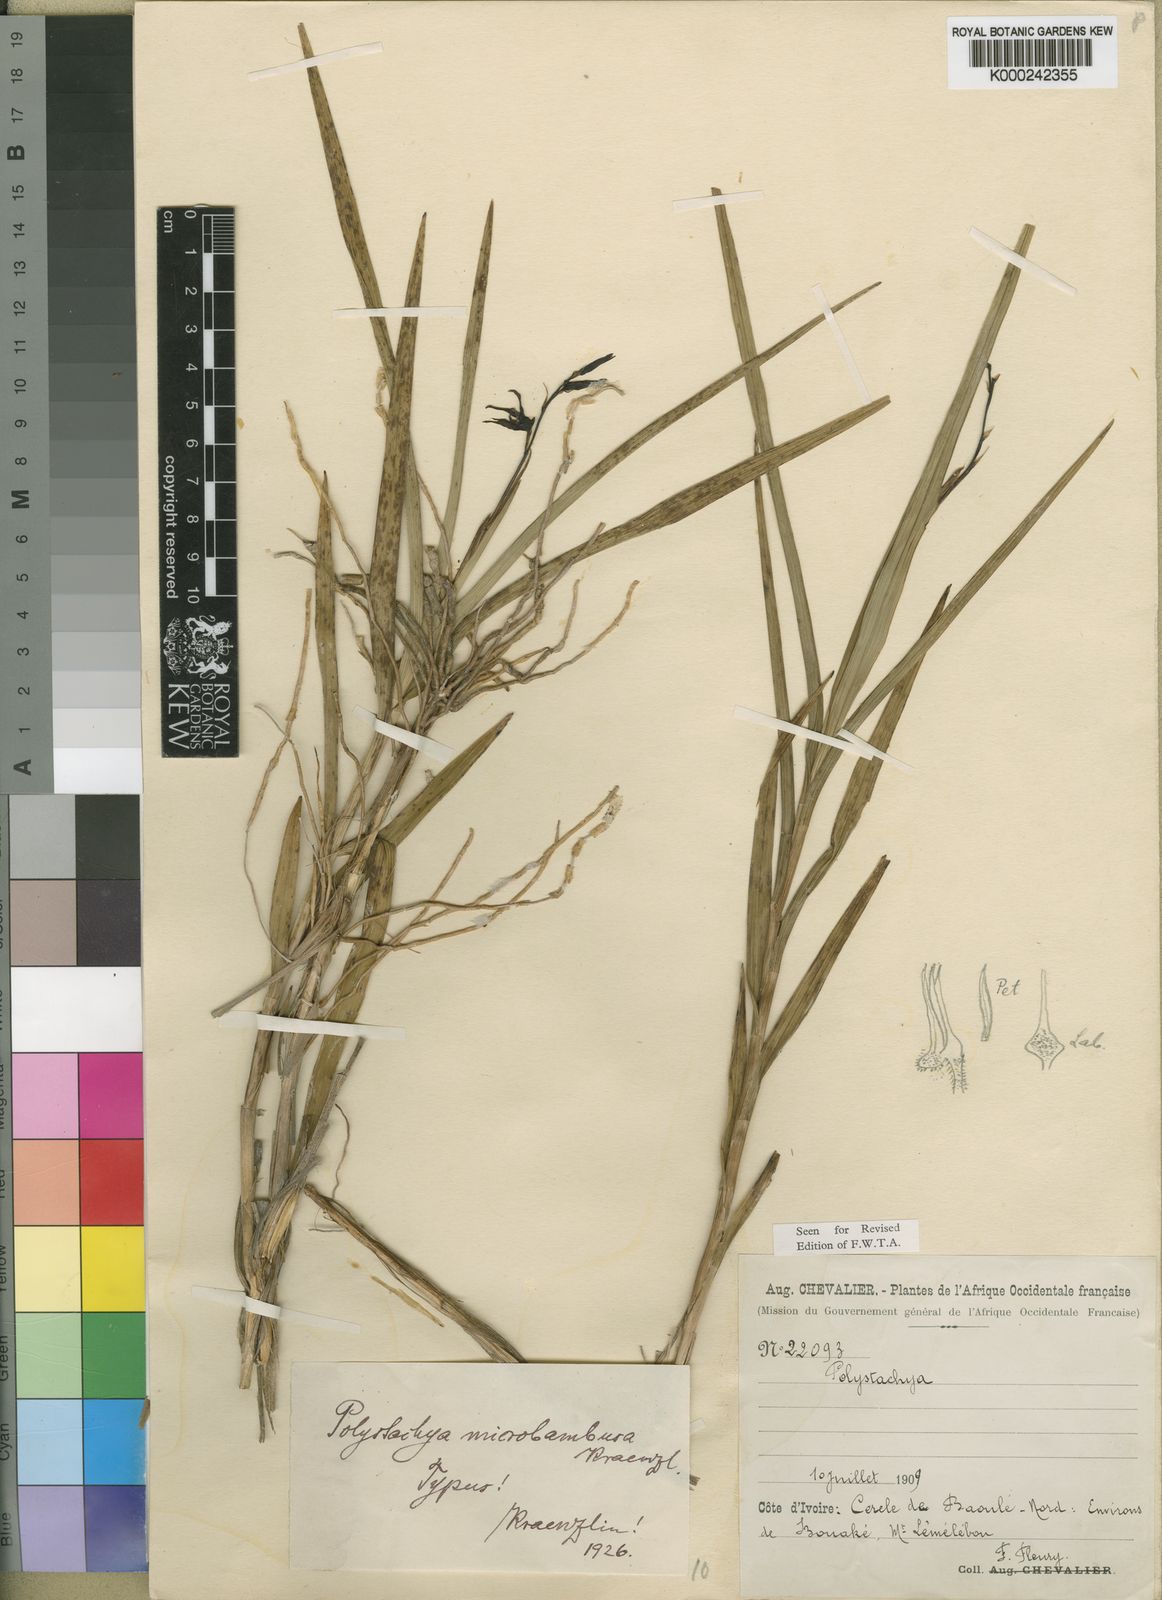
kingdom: Plantae
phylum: Tracheophyta
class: Liliopsida
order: Asparagales
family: Orchidaceae
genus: Polystachya
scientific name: Polystachya microbambusa
